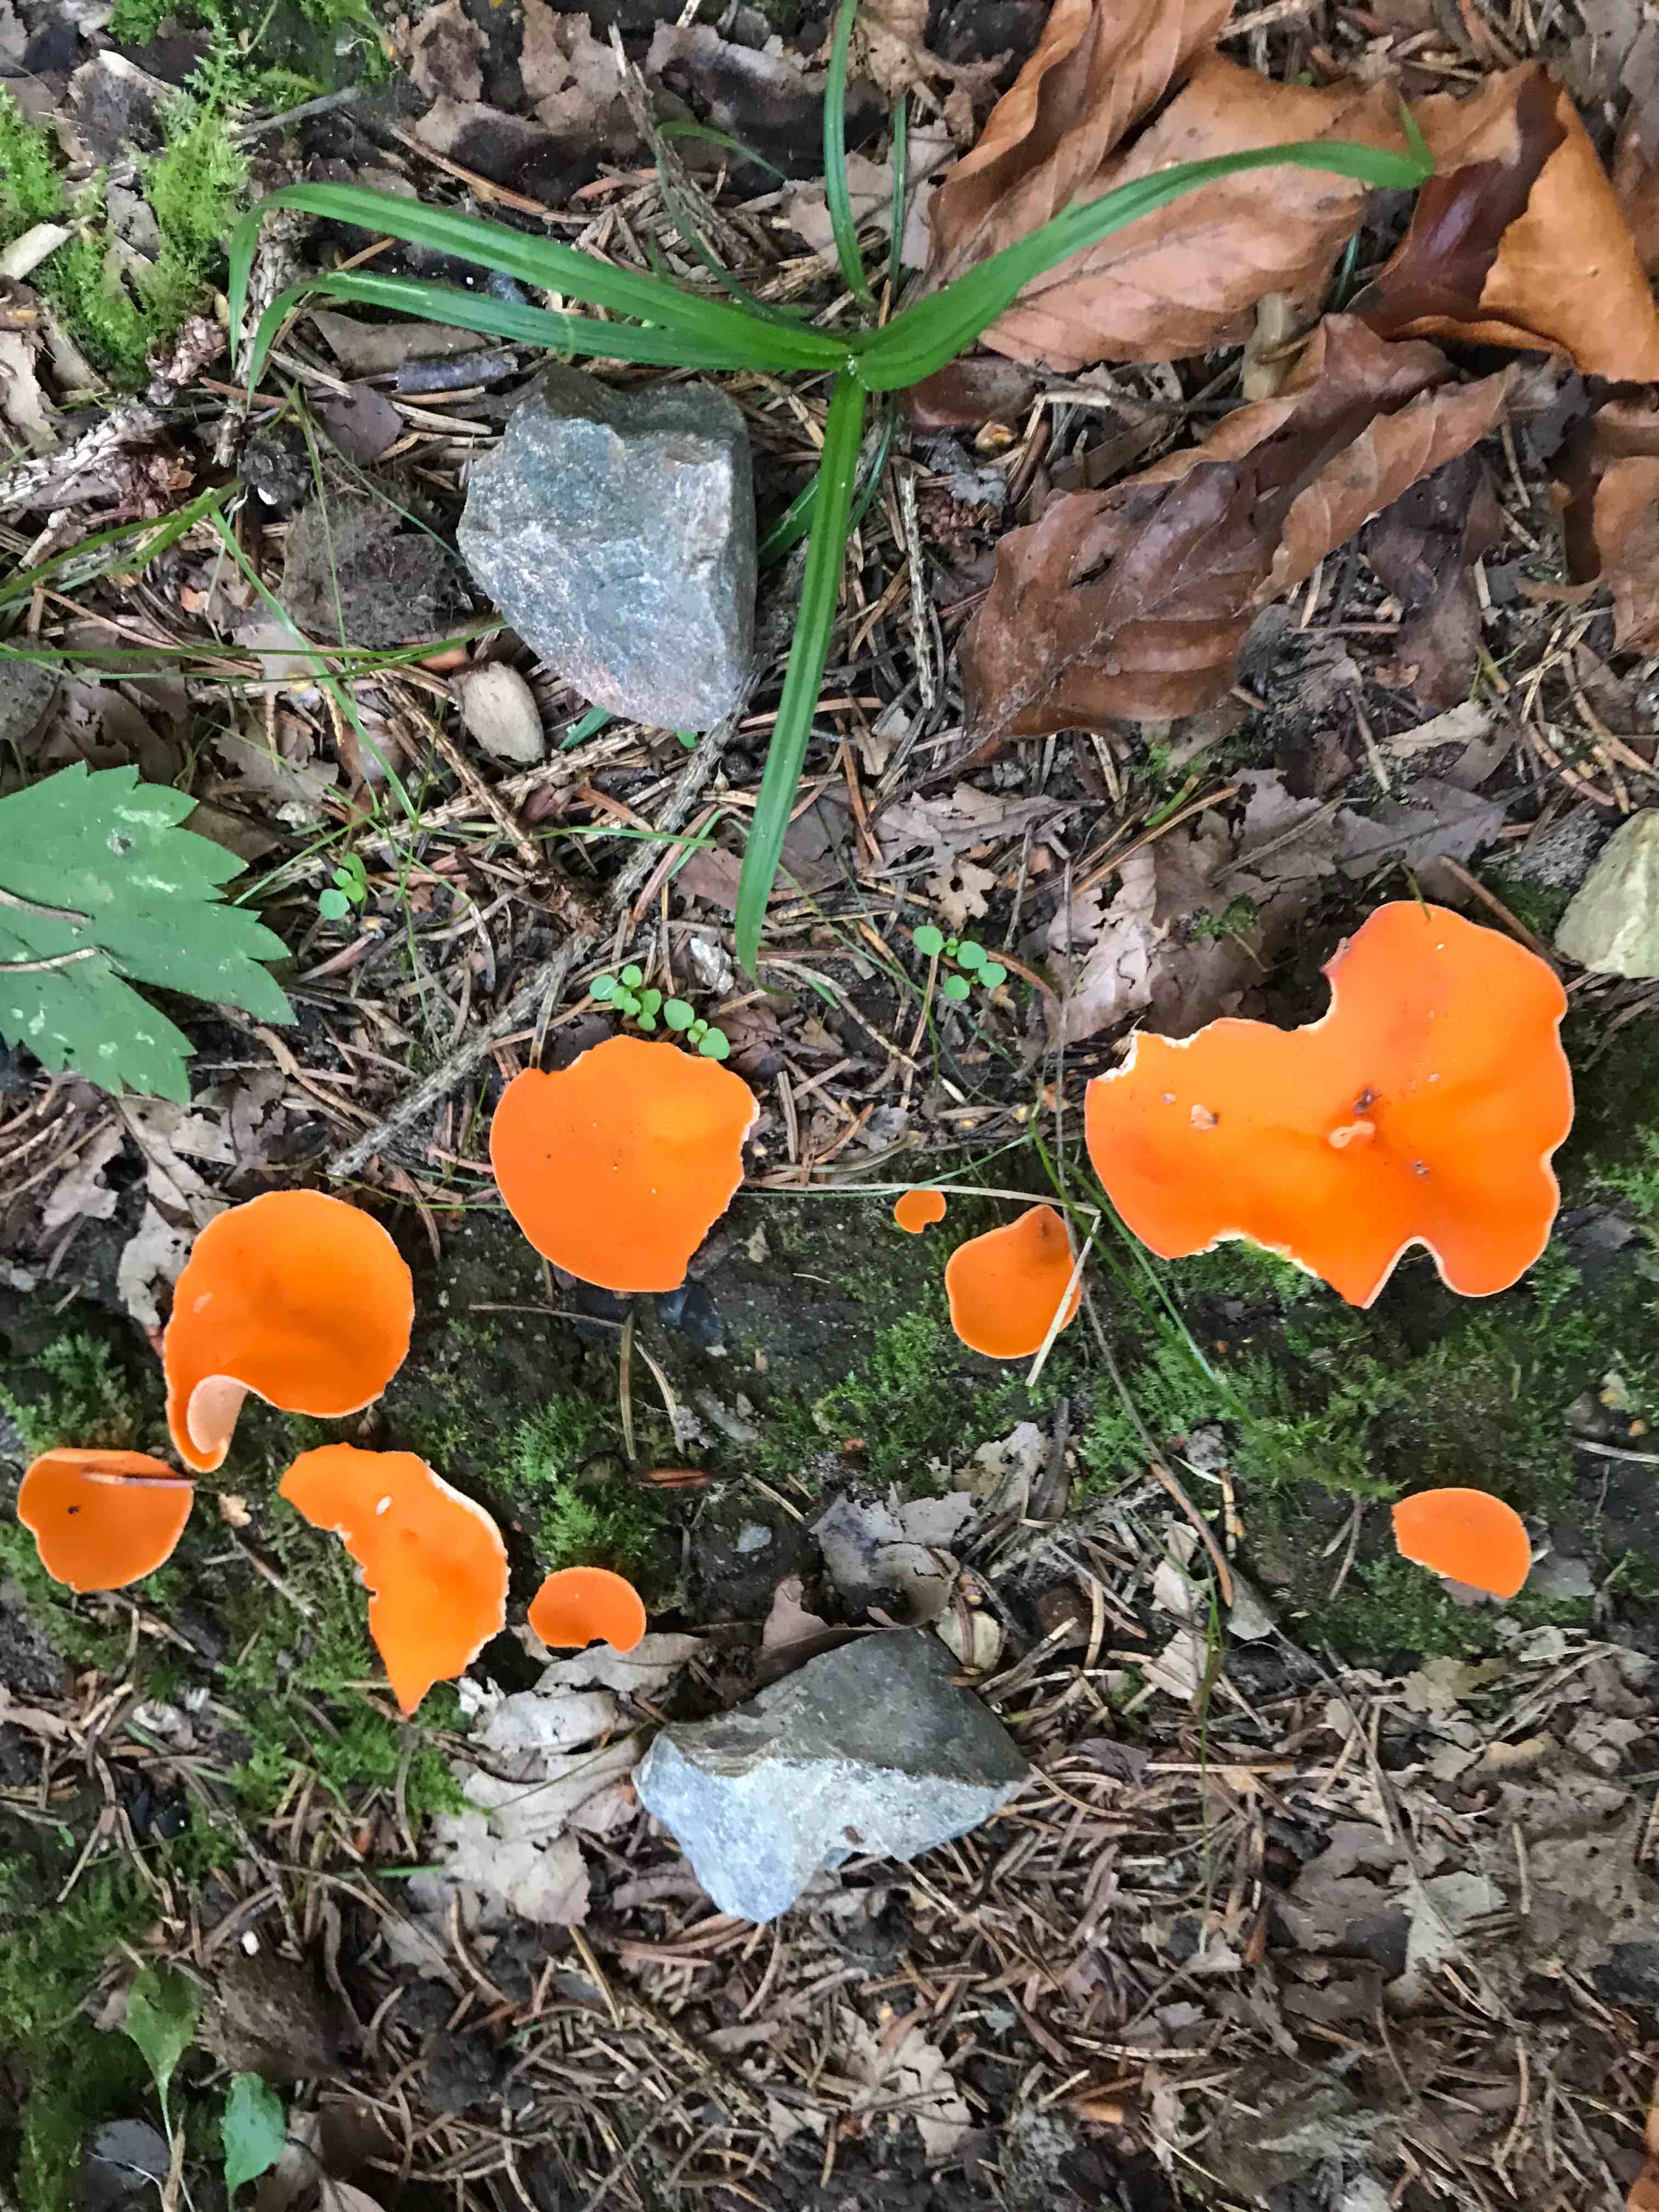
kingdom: Fungi
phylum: Ascomycota
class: Pezizomycetes
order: Pezizales
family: Pyronemataceae
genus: Aleuria
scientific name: Aleuria aurantia
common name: almindelig orangebæger
